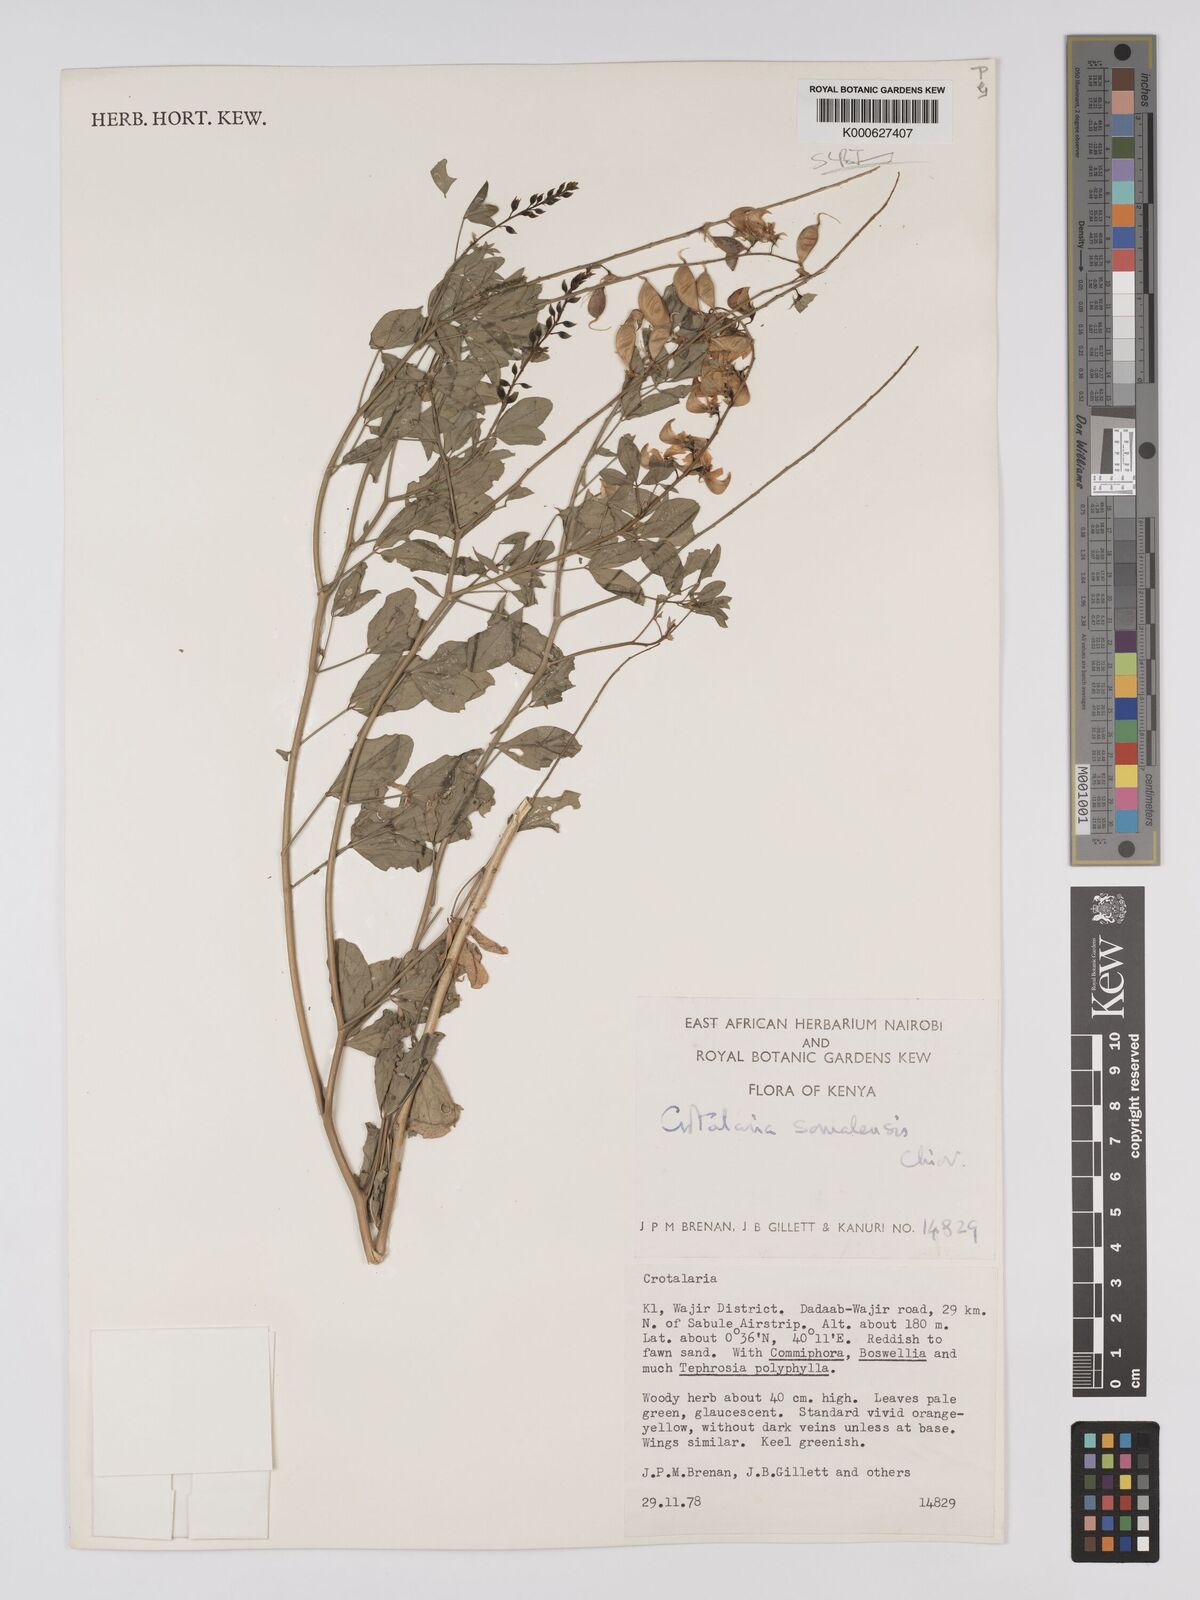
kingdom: Plantae
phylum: Tracheophyta
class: Magnoliopsida
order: Fabales
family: Fabaceae
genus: Crotalaria
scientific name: Crotalaria somalensis
